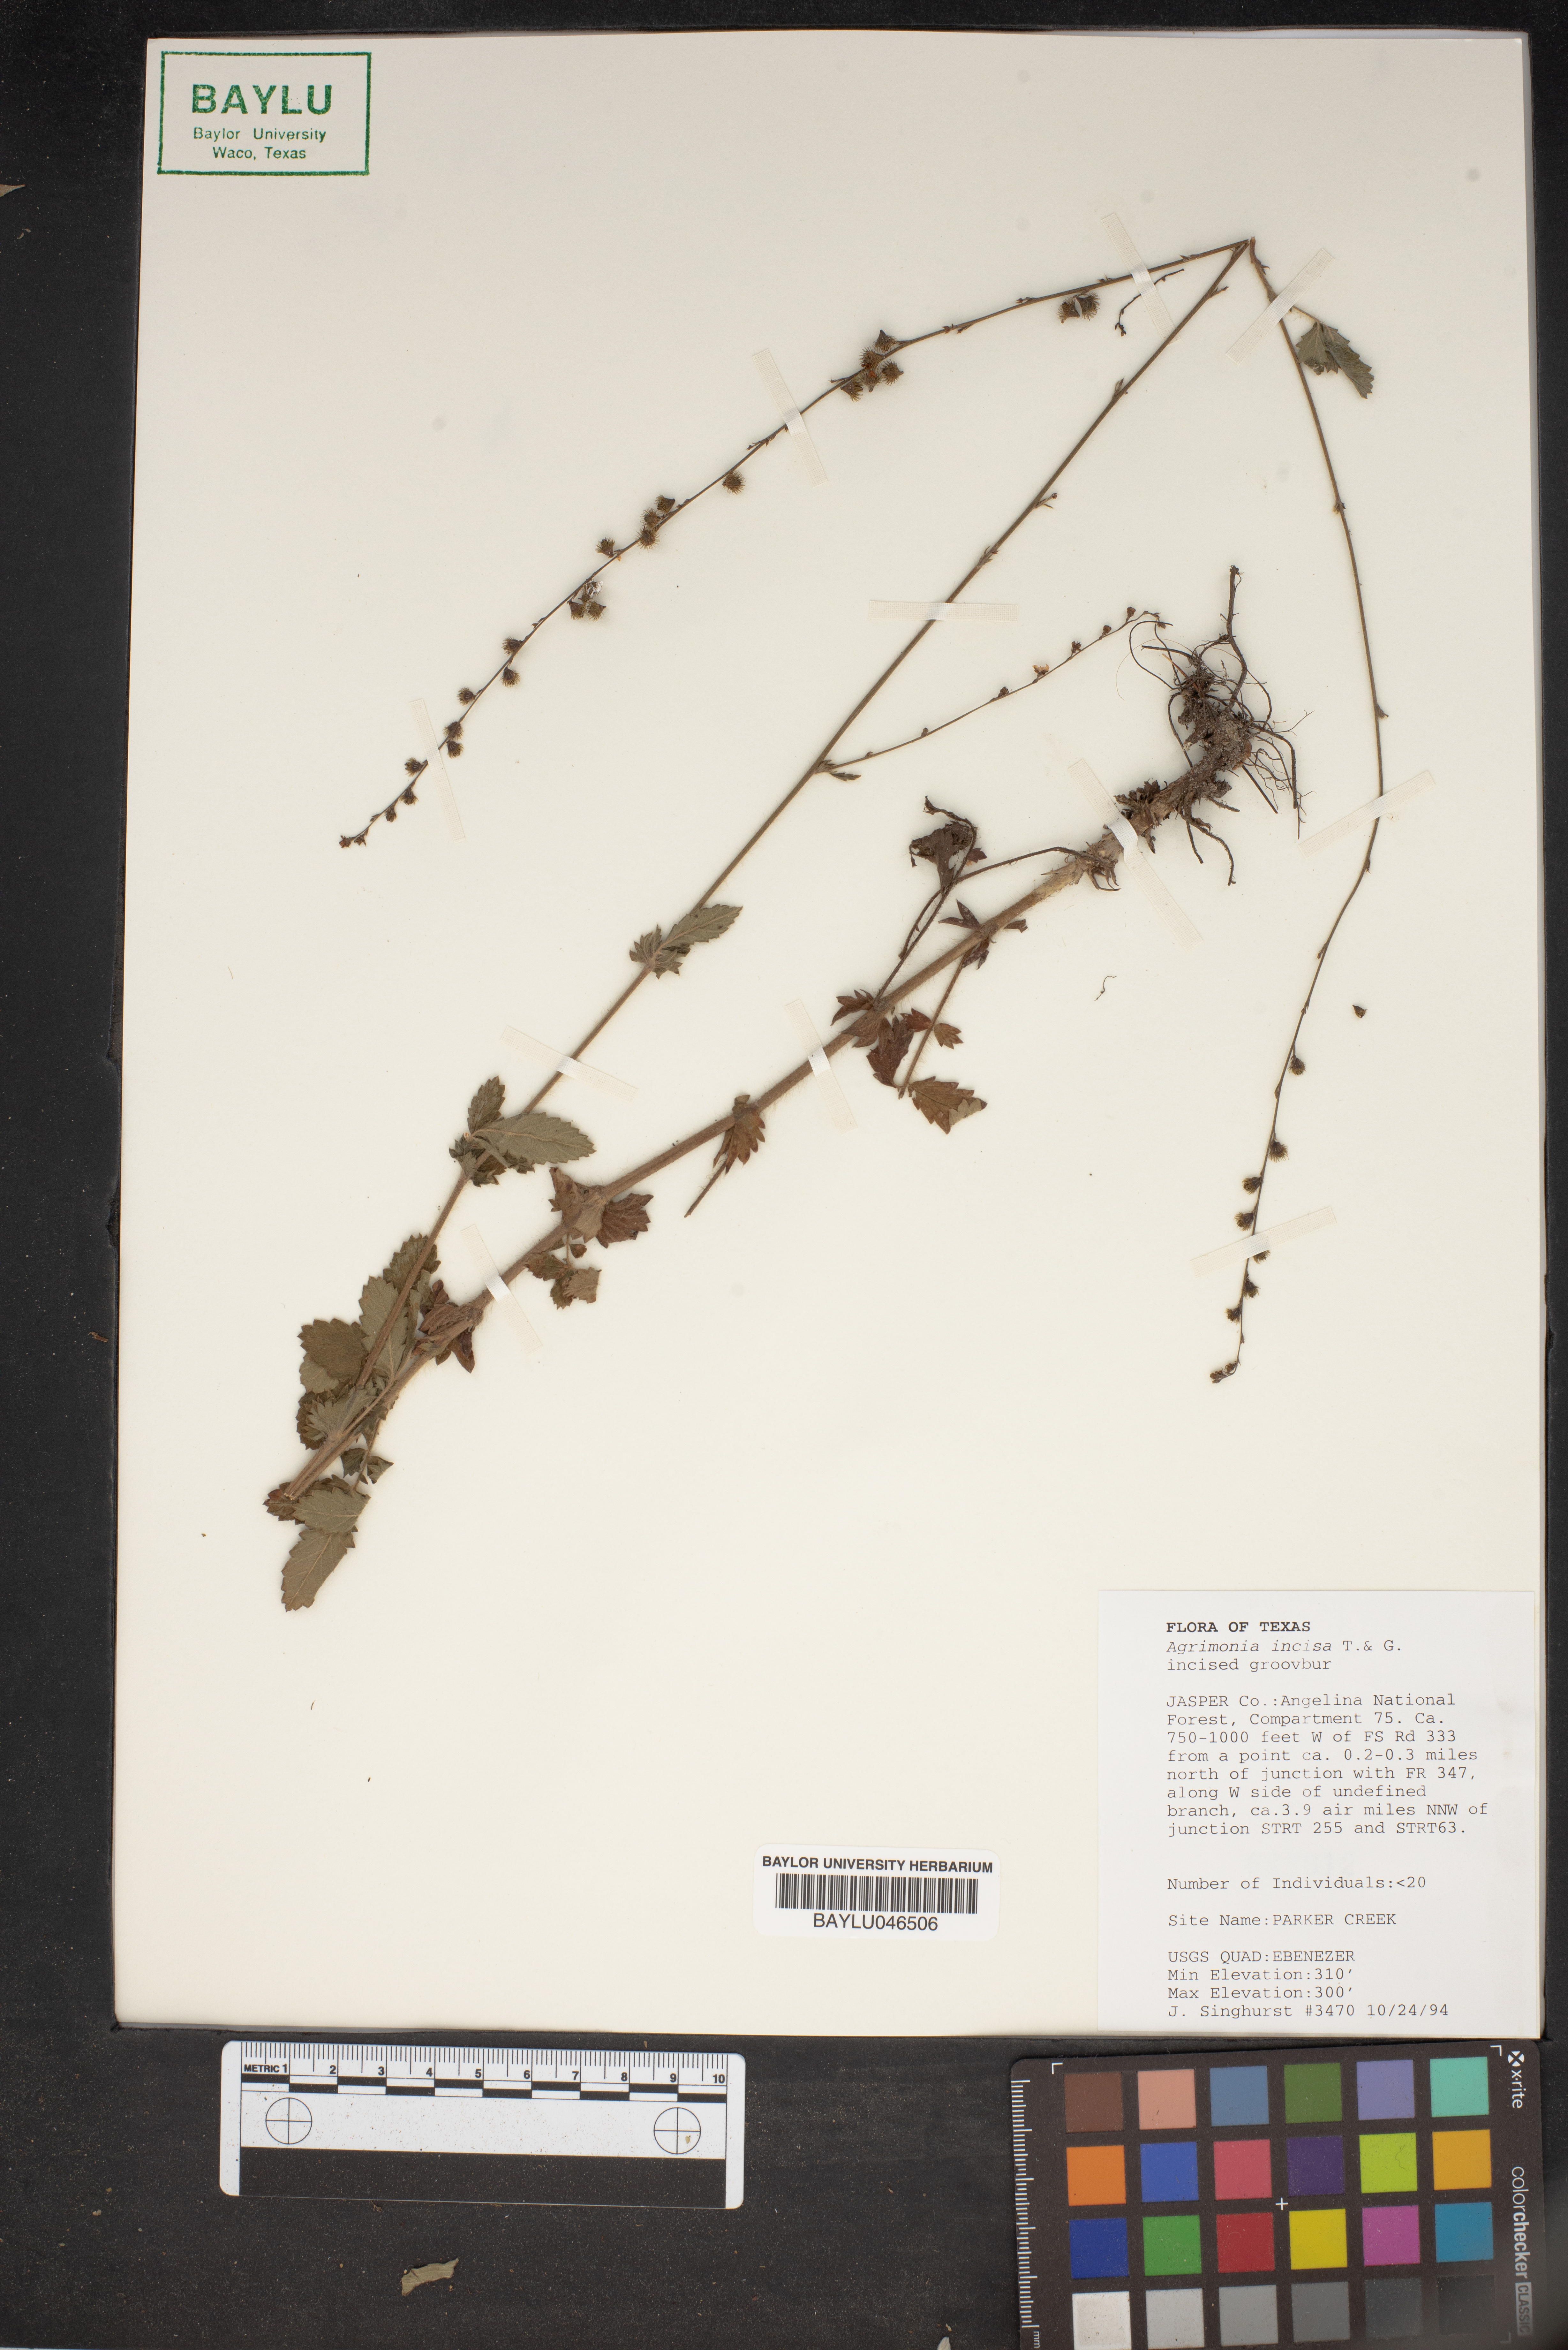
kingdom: Plantae
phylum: Tracheophyta
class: Magnoliopsida
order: Rosales
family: Rosaceae
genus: Agrimonia
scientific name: Agrimonia incisa
